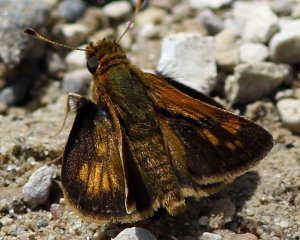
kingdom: Animalia
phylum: Arthropoda
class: Insecta
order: Lepidoptera
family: Hesperiidae
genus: Polites
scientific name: Polites coras
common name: Peck's Skipper
